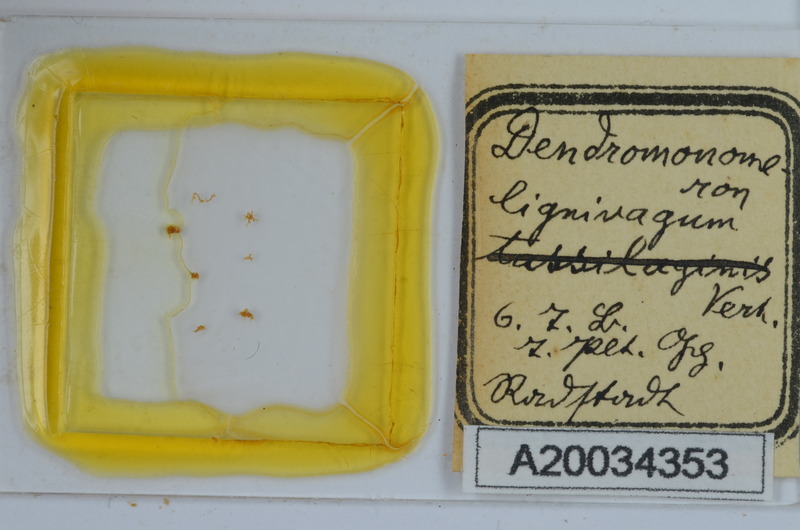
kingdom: Animalia
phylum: Arthropoda
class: Diplopoda
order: Chordeumatida
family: Attemsiidae
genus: Dendromonomeron
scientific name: Dendromonomeron lignivagum
